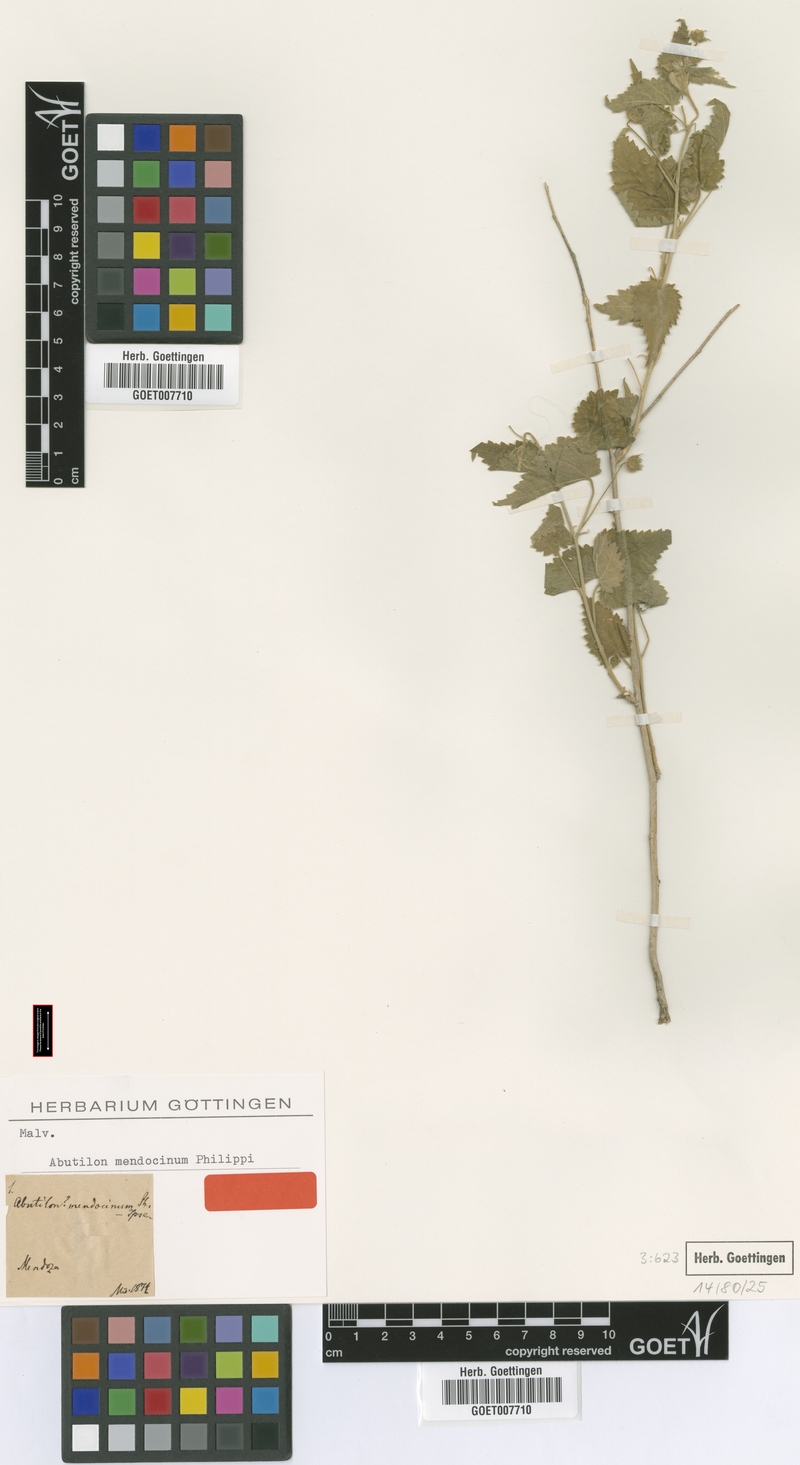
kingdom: Plantae
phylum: Tracheophyta
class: Magnoliopsida
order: Malvales
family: Malvaceae
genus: Pseudabutilon
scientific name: Pseudabutilon virgatum
